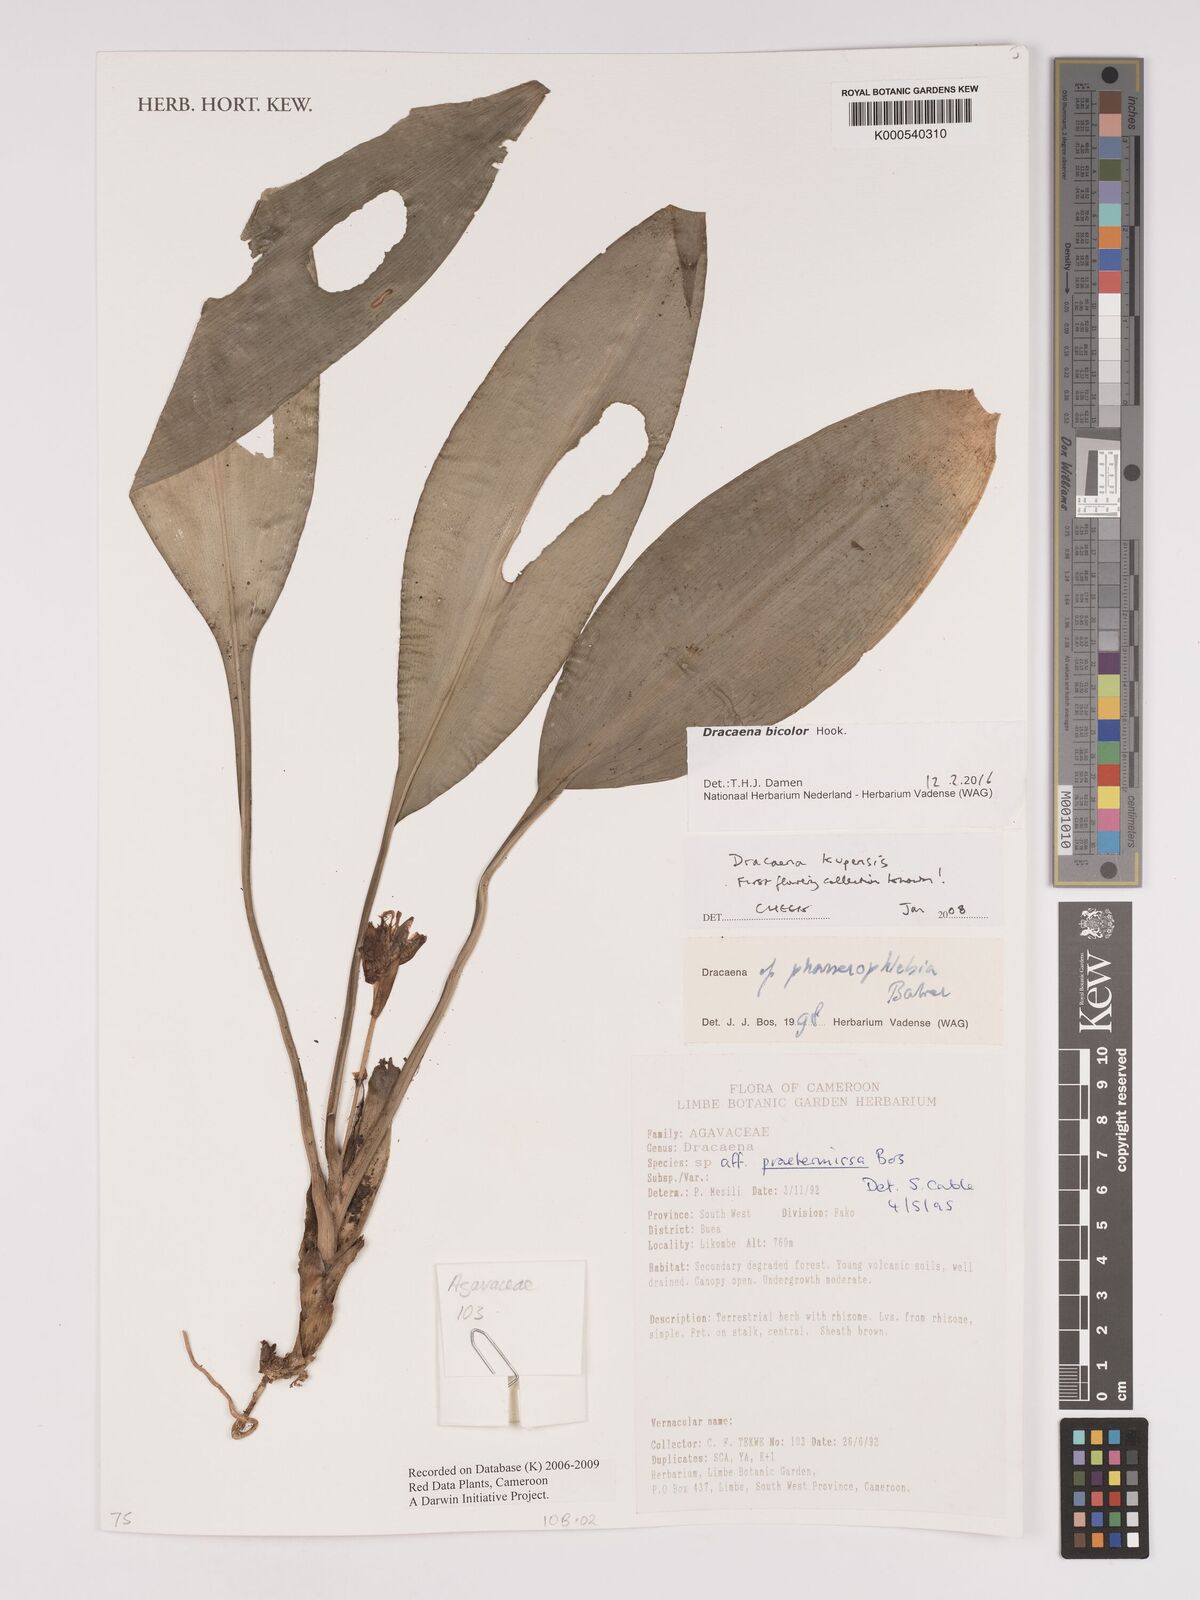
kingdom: Plantae
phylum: Tracheophyta
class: Liliopsida
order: Asparagales
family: Asparagaceae
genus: Dracaena
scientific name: Dracaena kupensis
